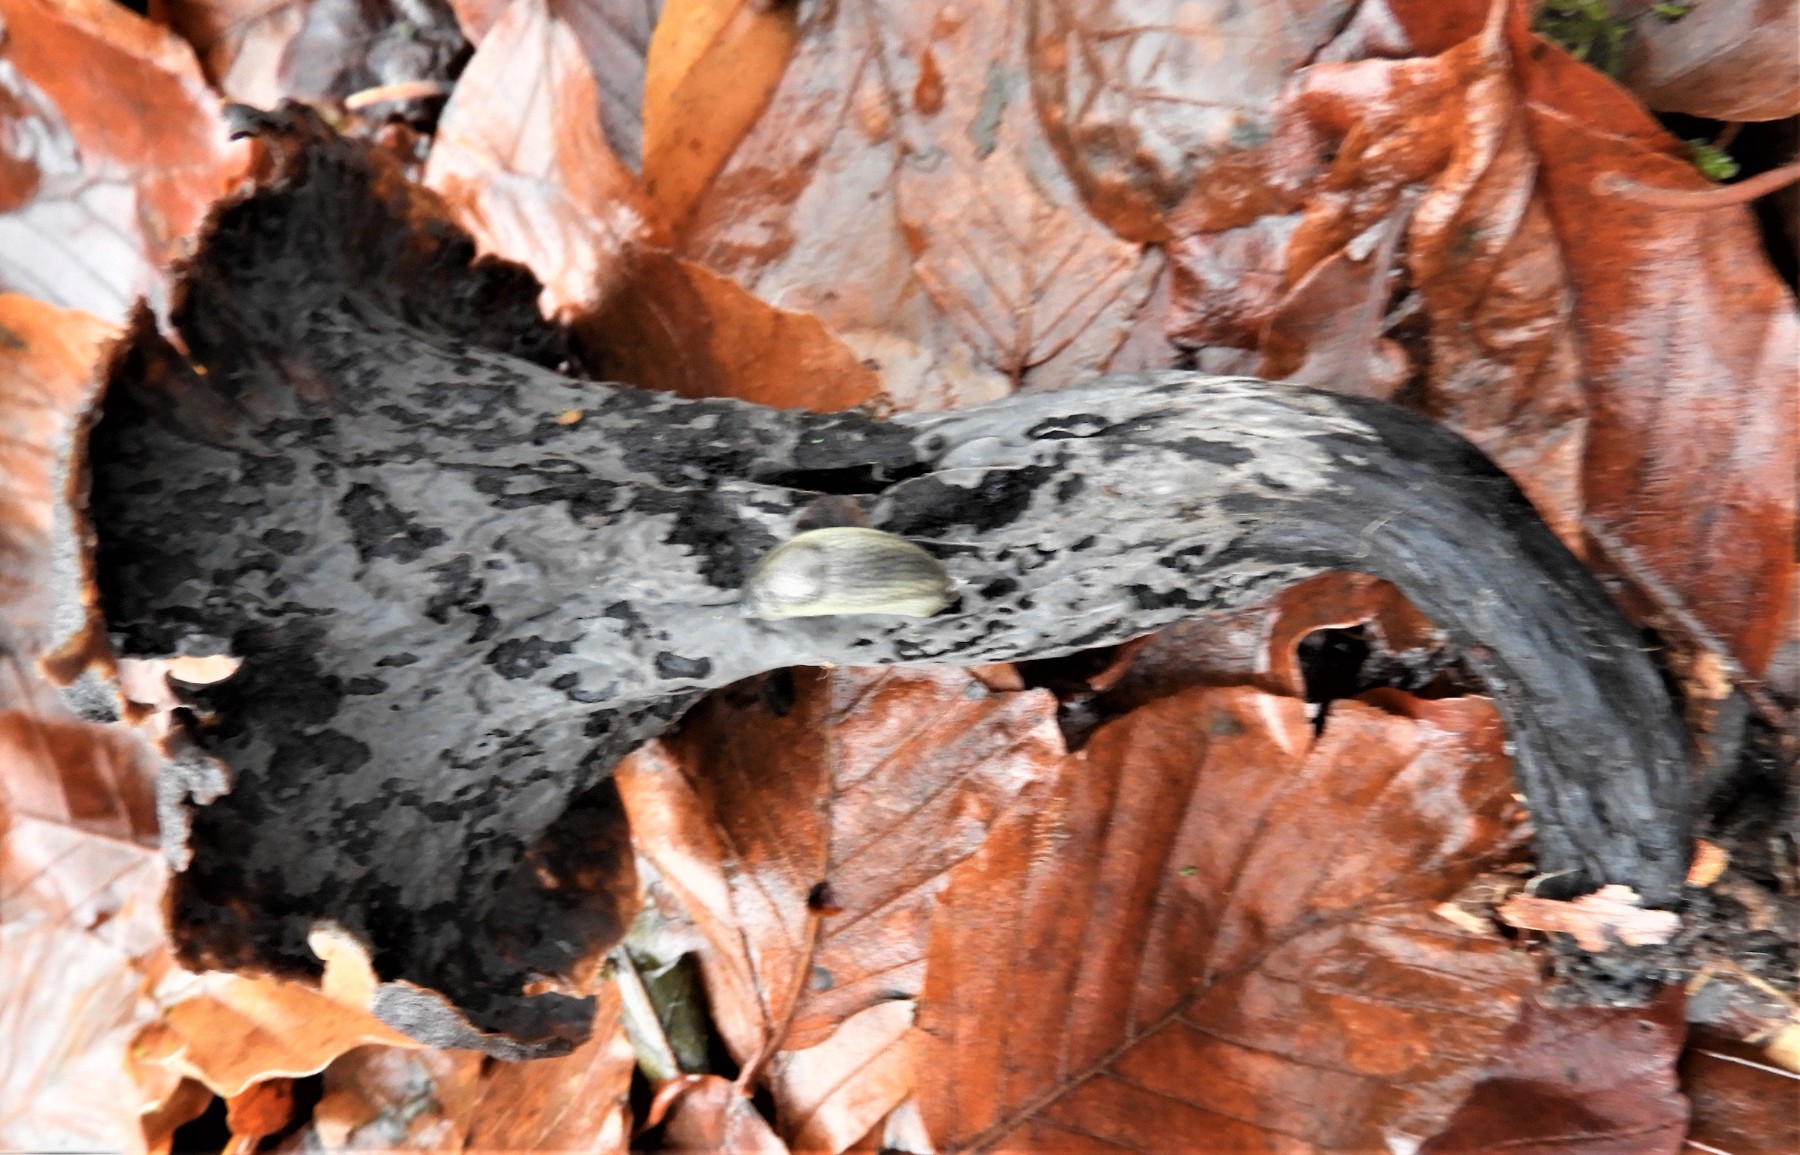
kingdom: Fungi
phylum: Basidiomycota
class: Agaricomycetes
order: Cantharellales
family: Hydnaceae
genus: Craterellus
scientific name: Craterellus cornucopioides
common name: trompetsvamp
